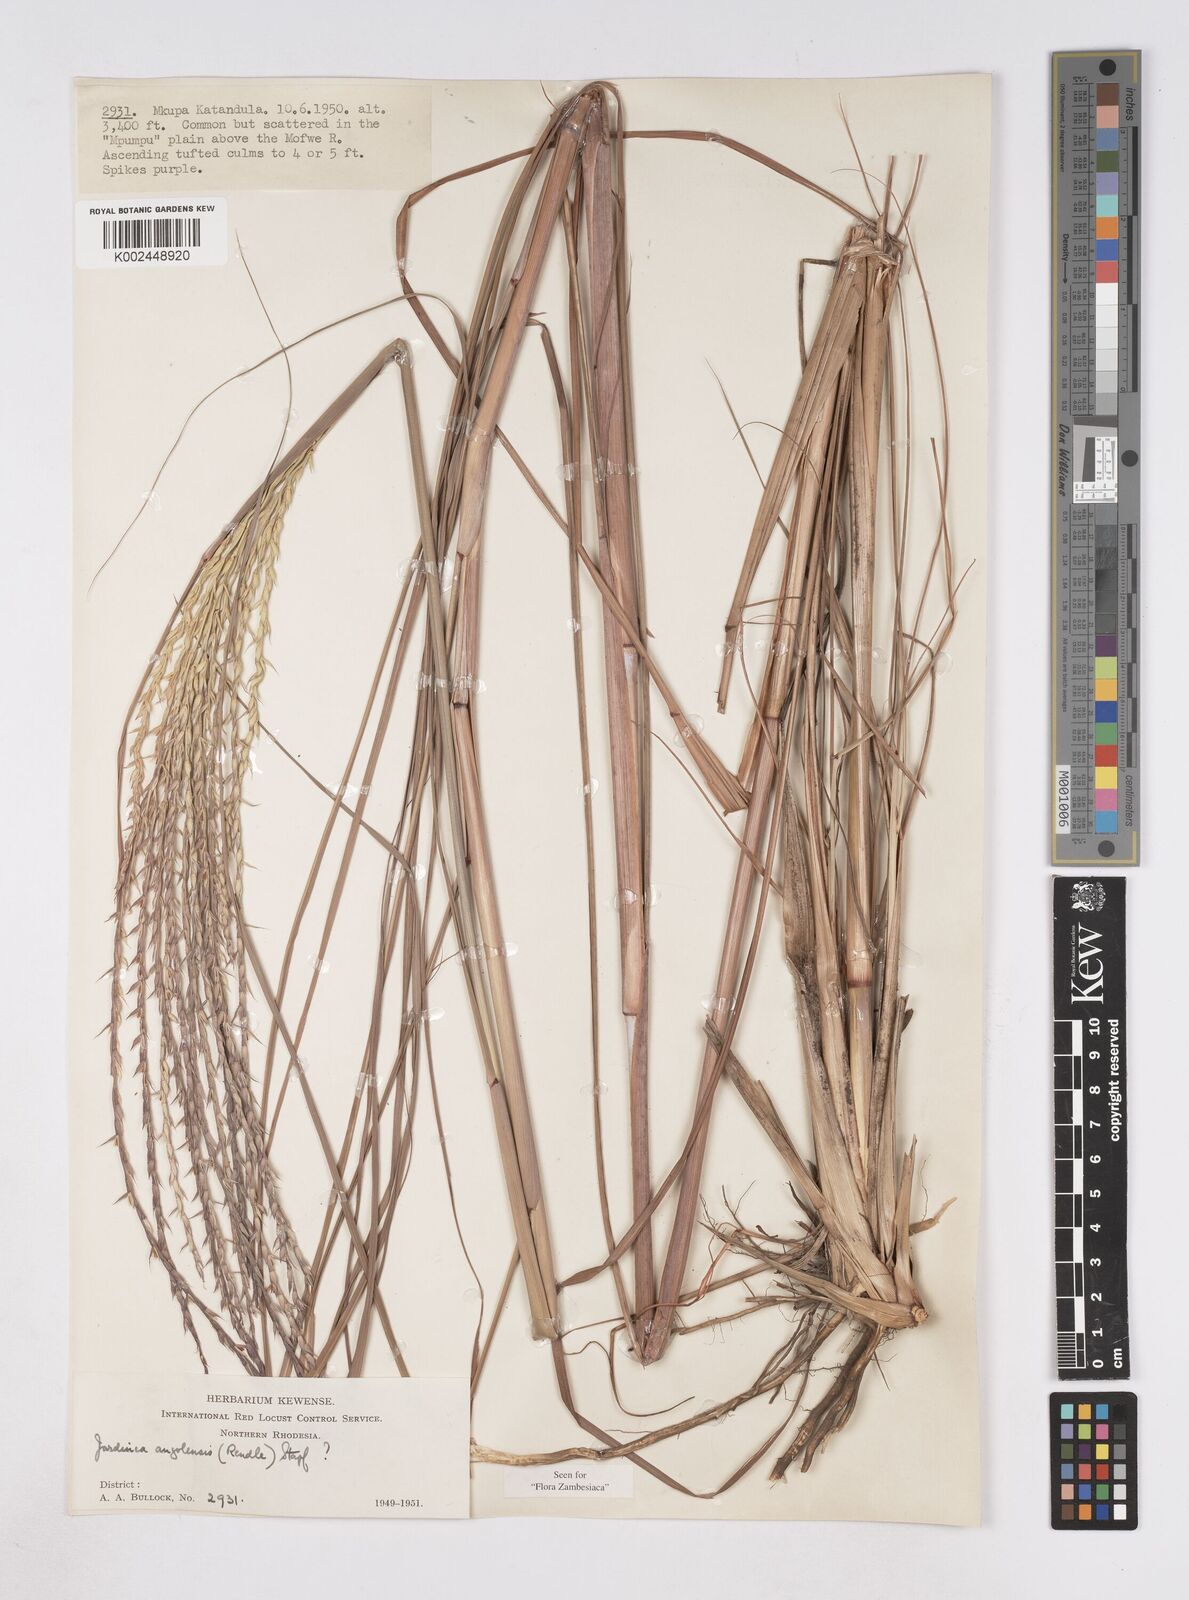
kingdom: Plantae
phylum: Tracheophyta
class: Liliopsida
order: Poales
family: Poaceae
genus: Phacelurus
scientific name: Phacelurus gabonensis
